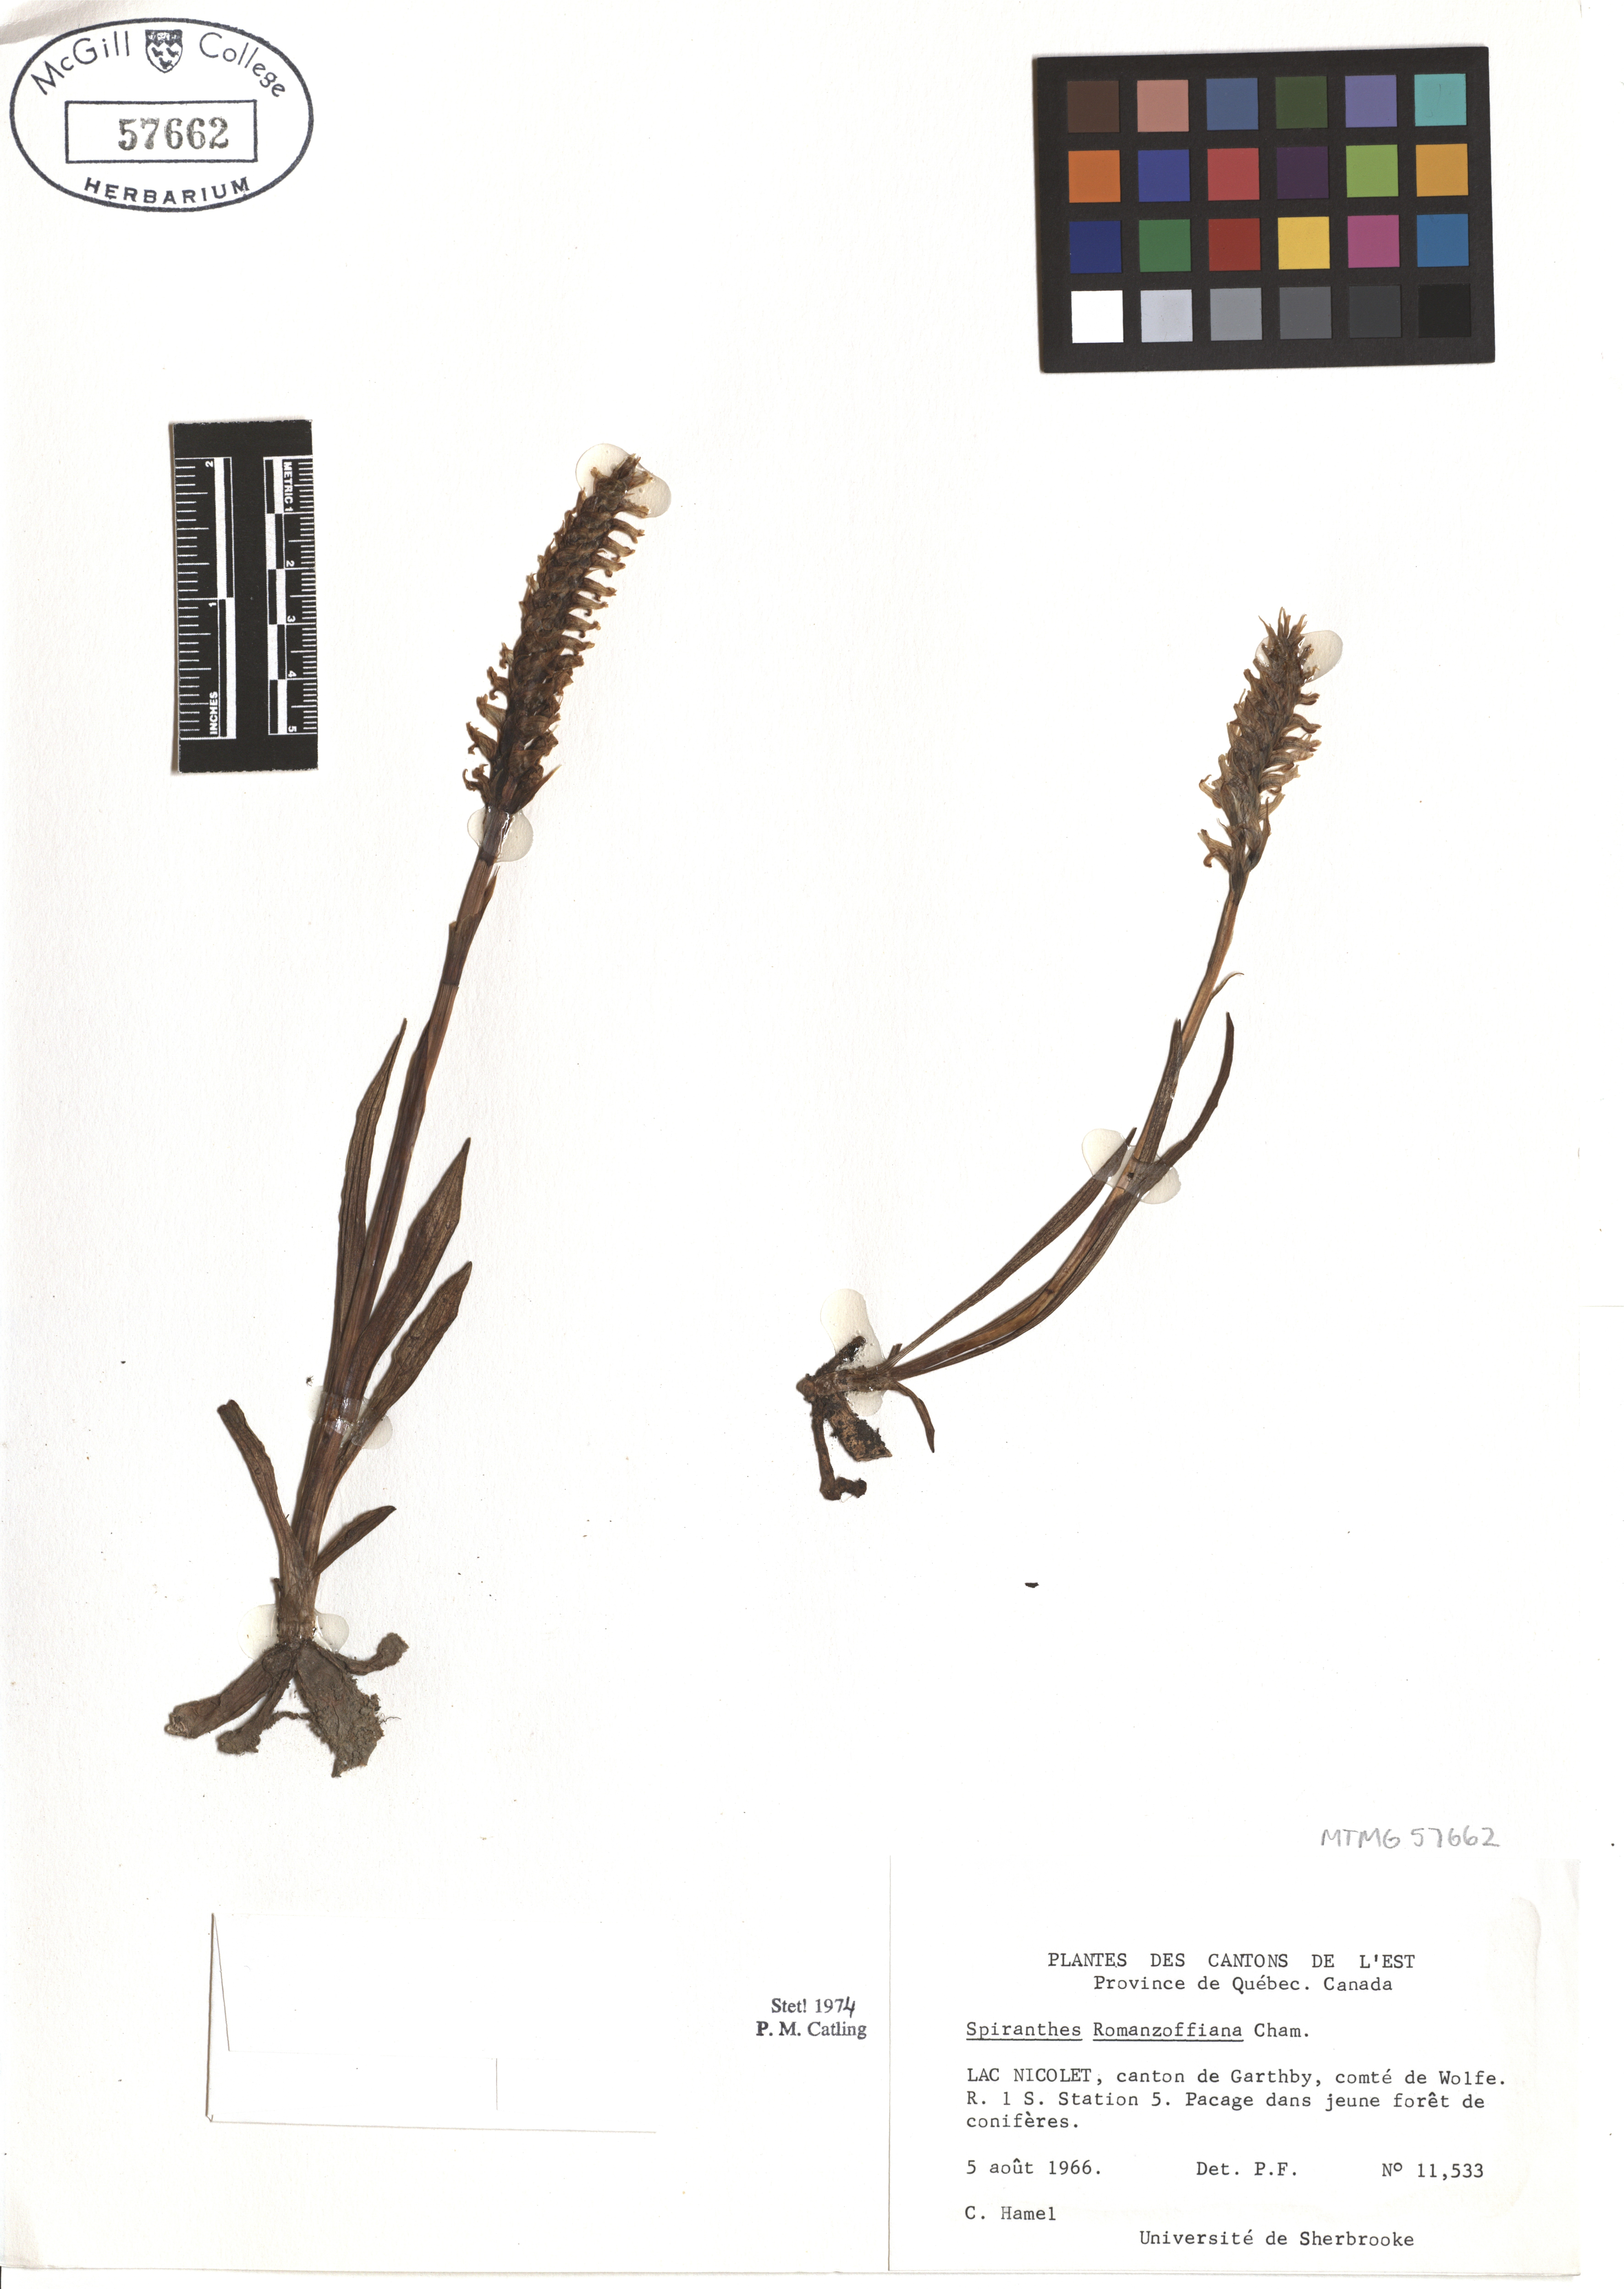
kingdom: Plantae
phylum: Tracheophyta
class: Liliopsida
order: Asparagales
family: Orchidaceae
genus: Spiranthes
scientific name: Spiranthes romanzoffiana
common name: Irish lady's-tresses
